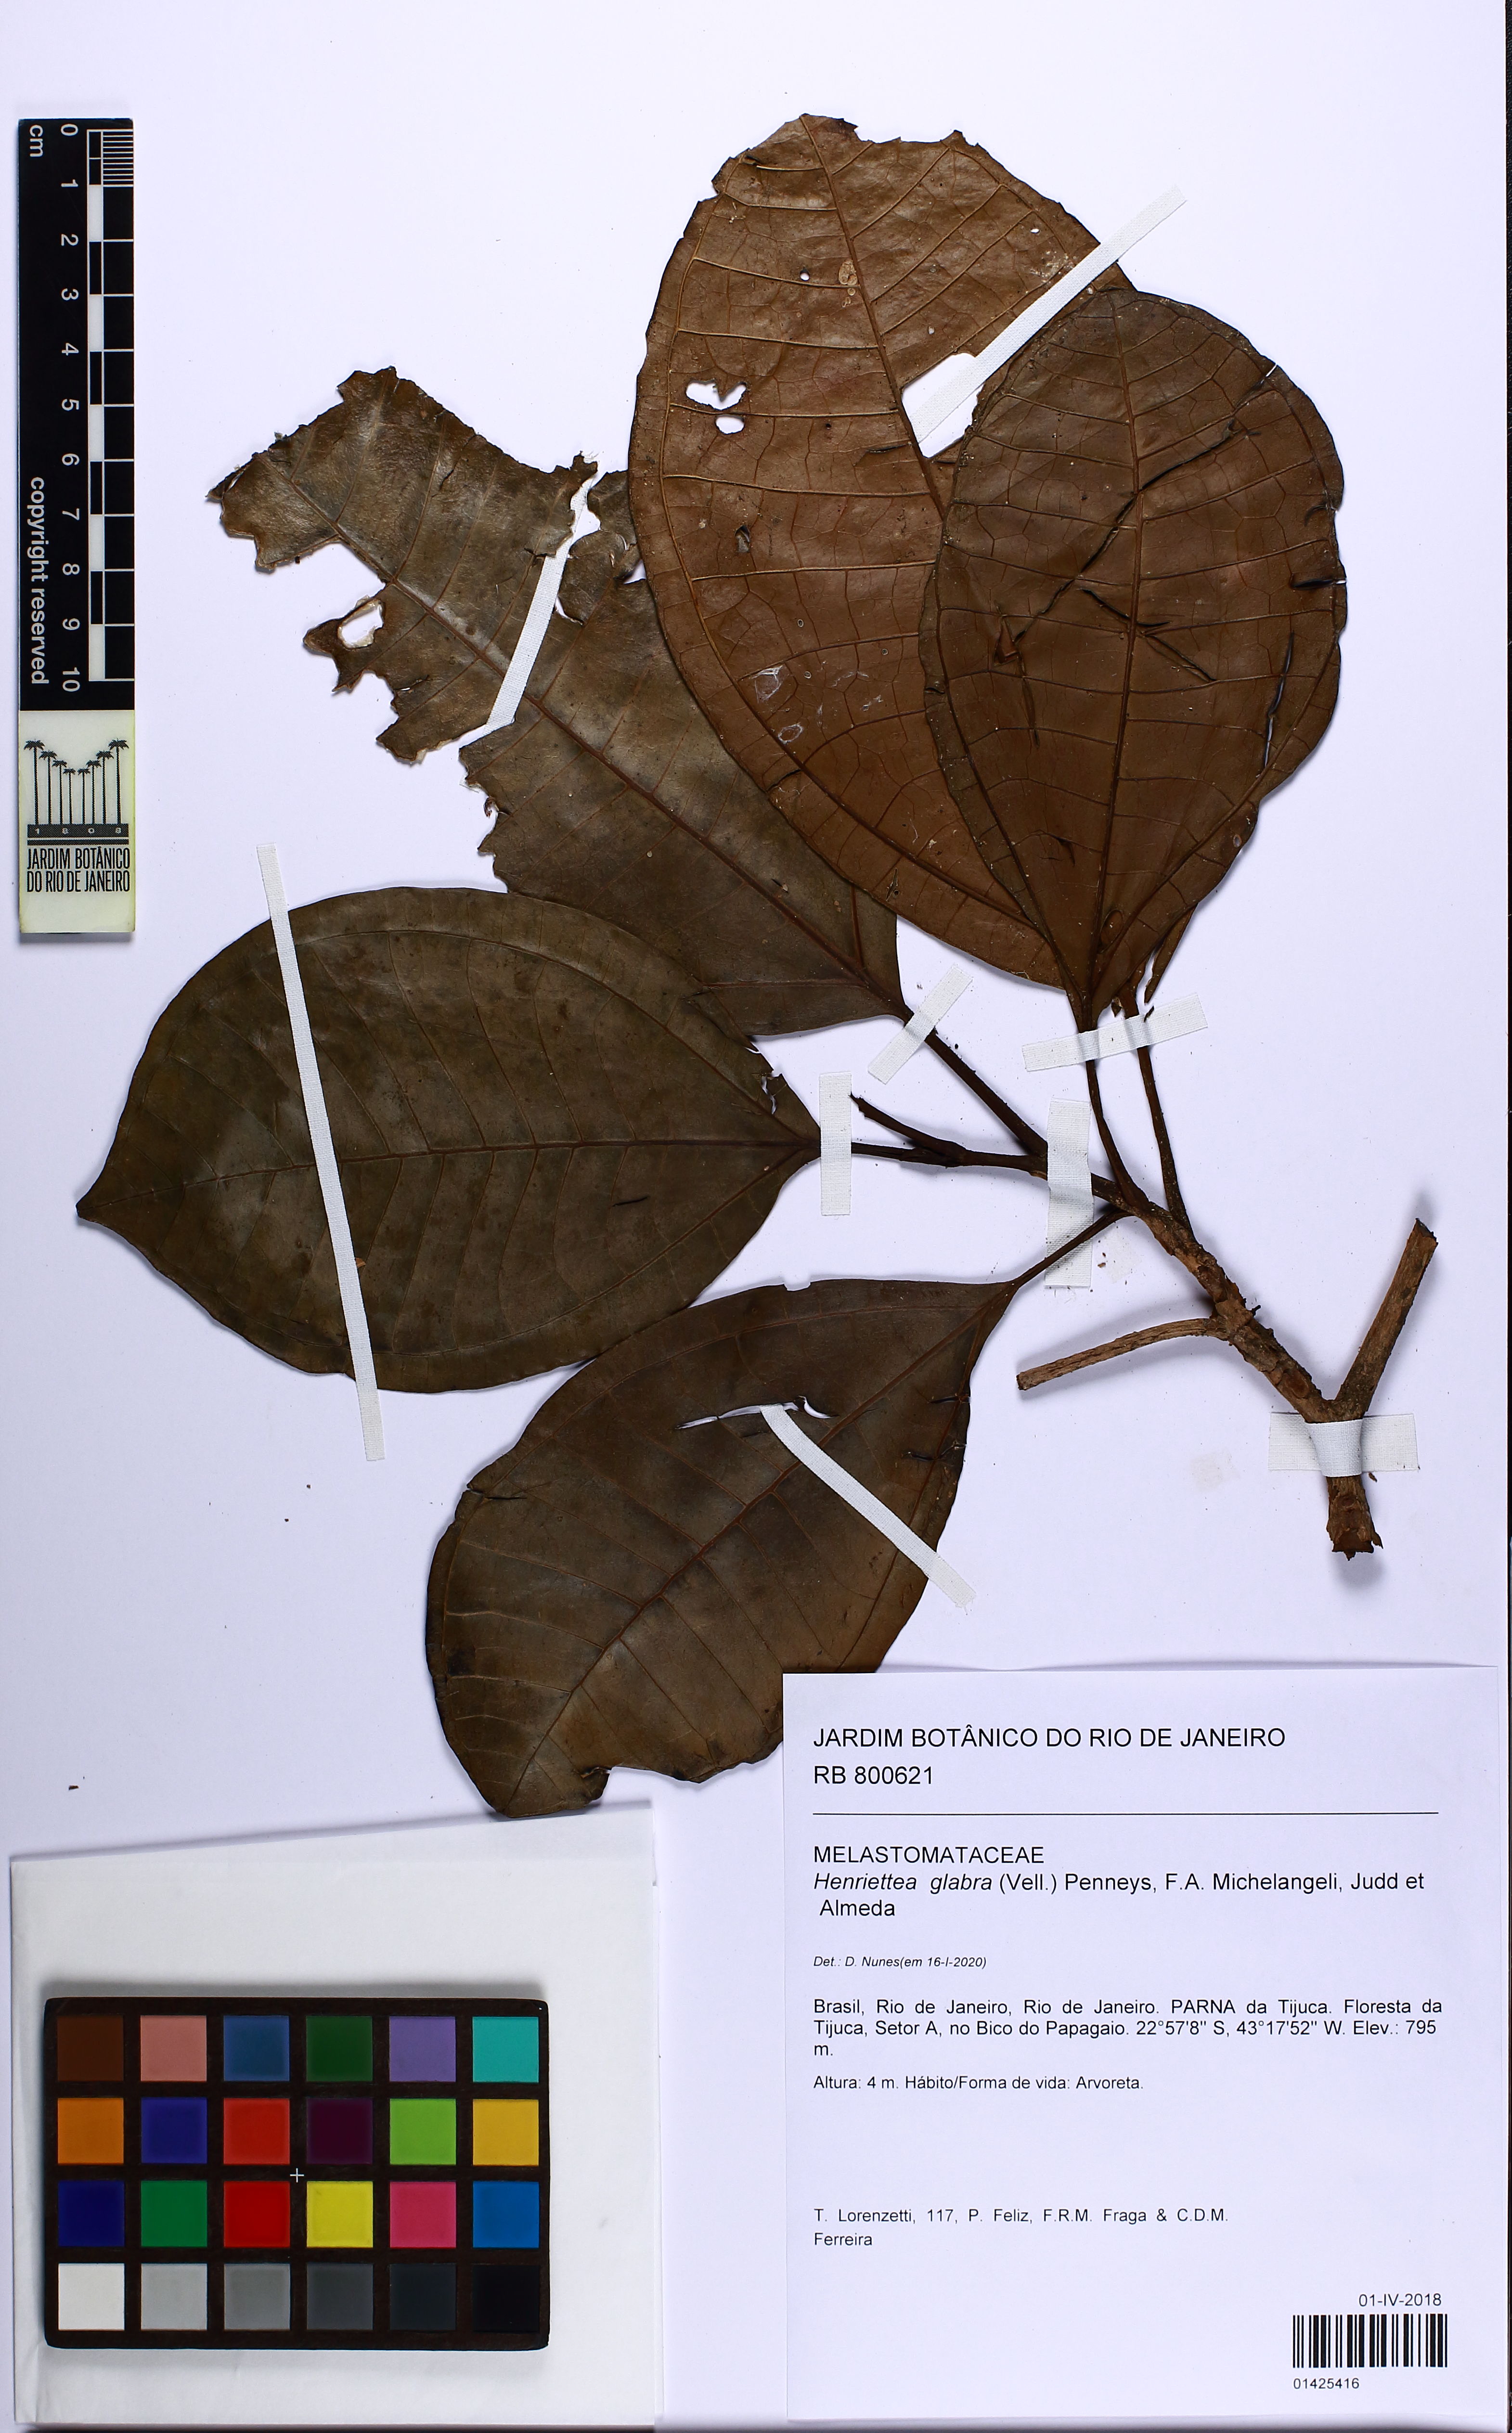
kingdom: Plantae
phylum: Tracheophyta
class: Magnoliopsida
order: Myrtales
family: Melastomataceae
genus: Henriettea
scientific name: Henriettea umbelluliflora
